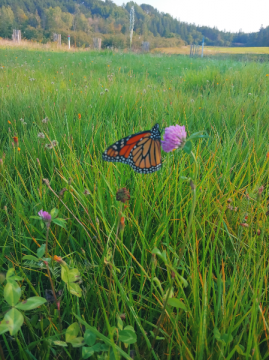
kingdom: Animalia
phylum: Arthropoda
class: Insecta
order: Lepidoptera
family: Nymphalidae
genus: Danaus
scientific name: Danaus plexippus
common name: Monarch
